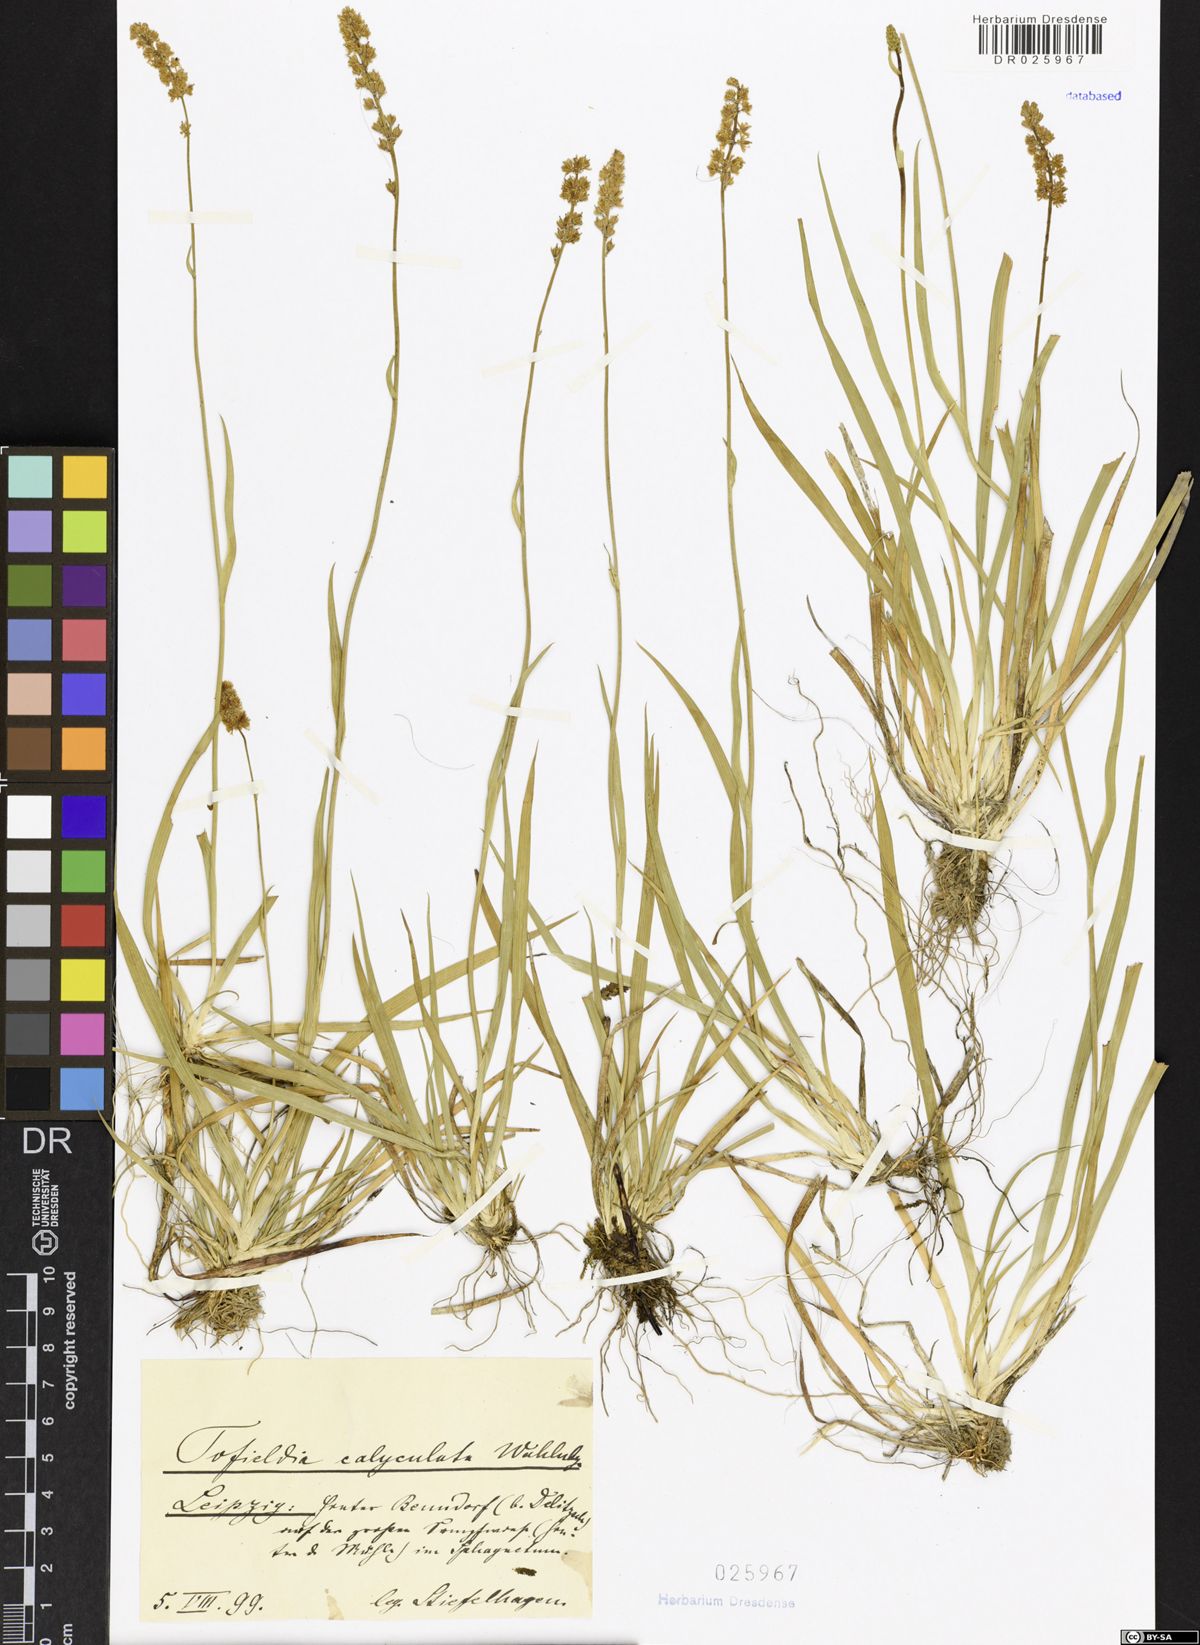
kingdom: Plantae
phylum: Tracheophyta
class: Liliopsida
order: Alismatales
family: Tofieldiaceae
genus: Tofieldia
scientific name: Tofieldia calyculata
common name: German-asphodel
